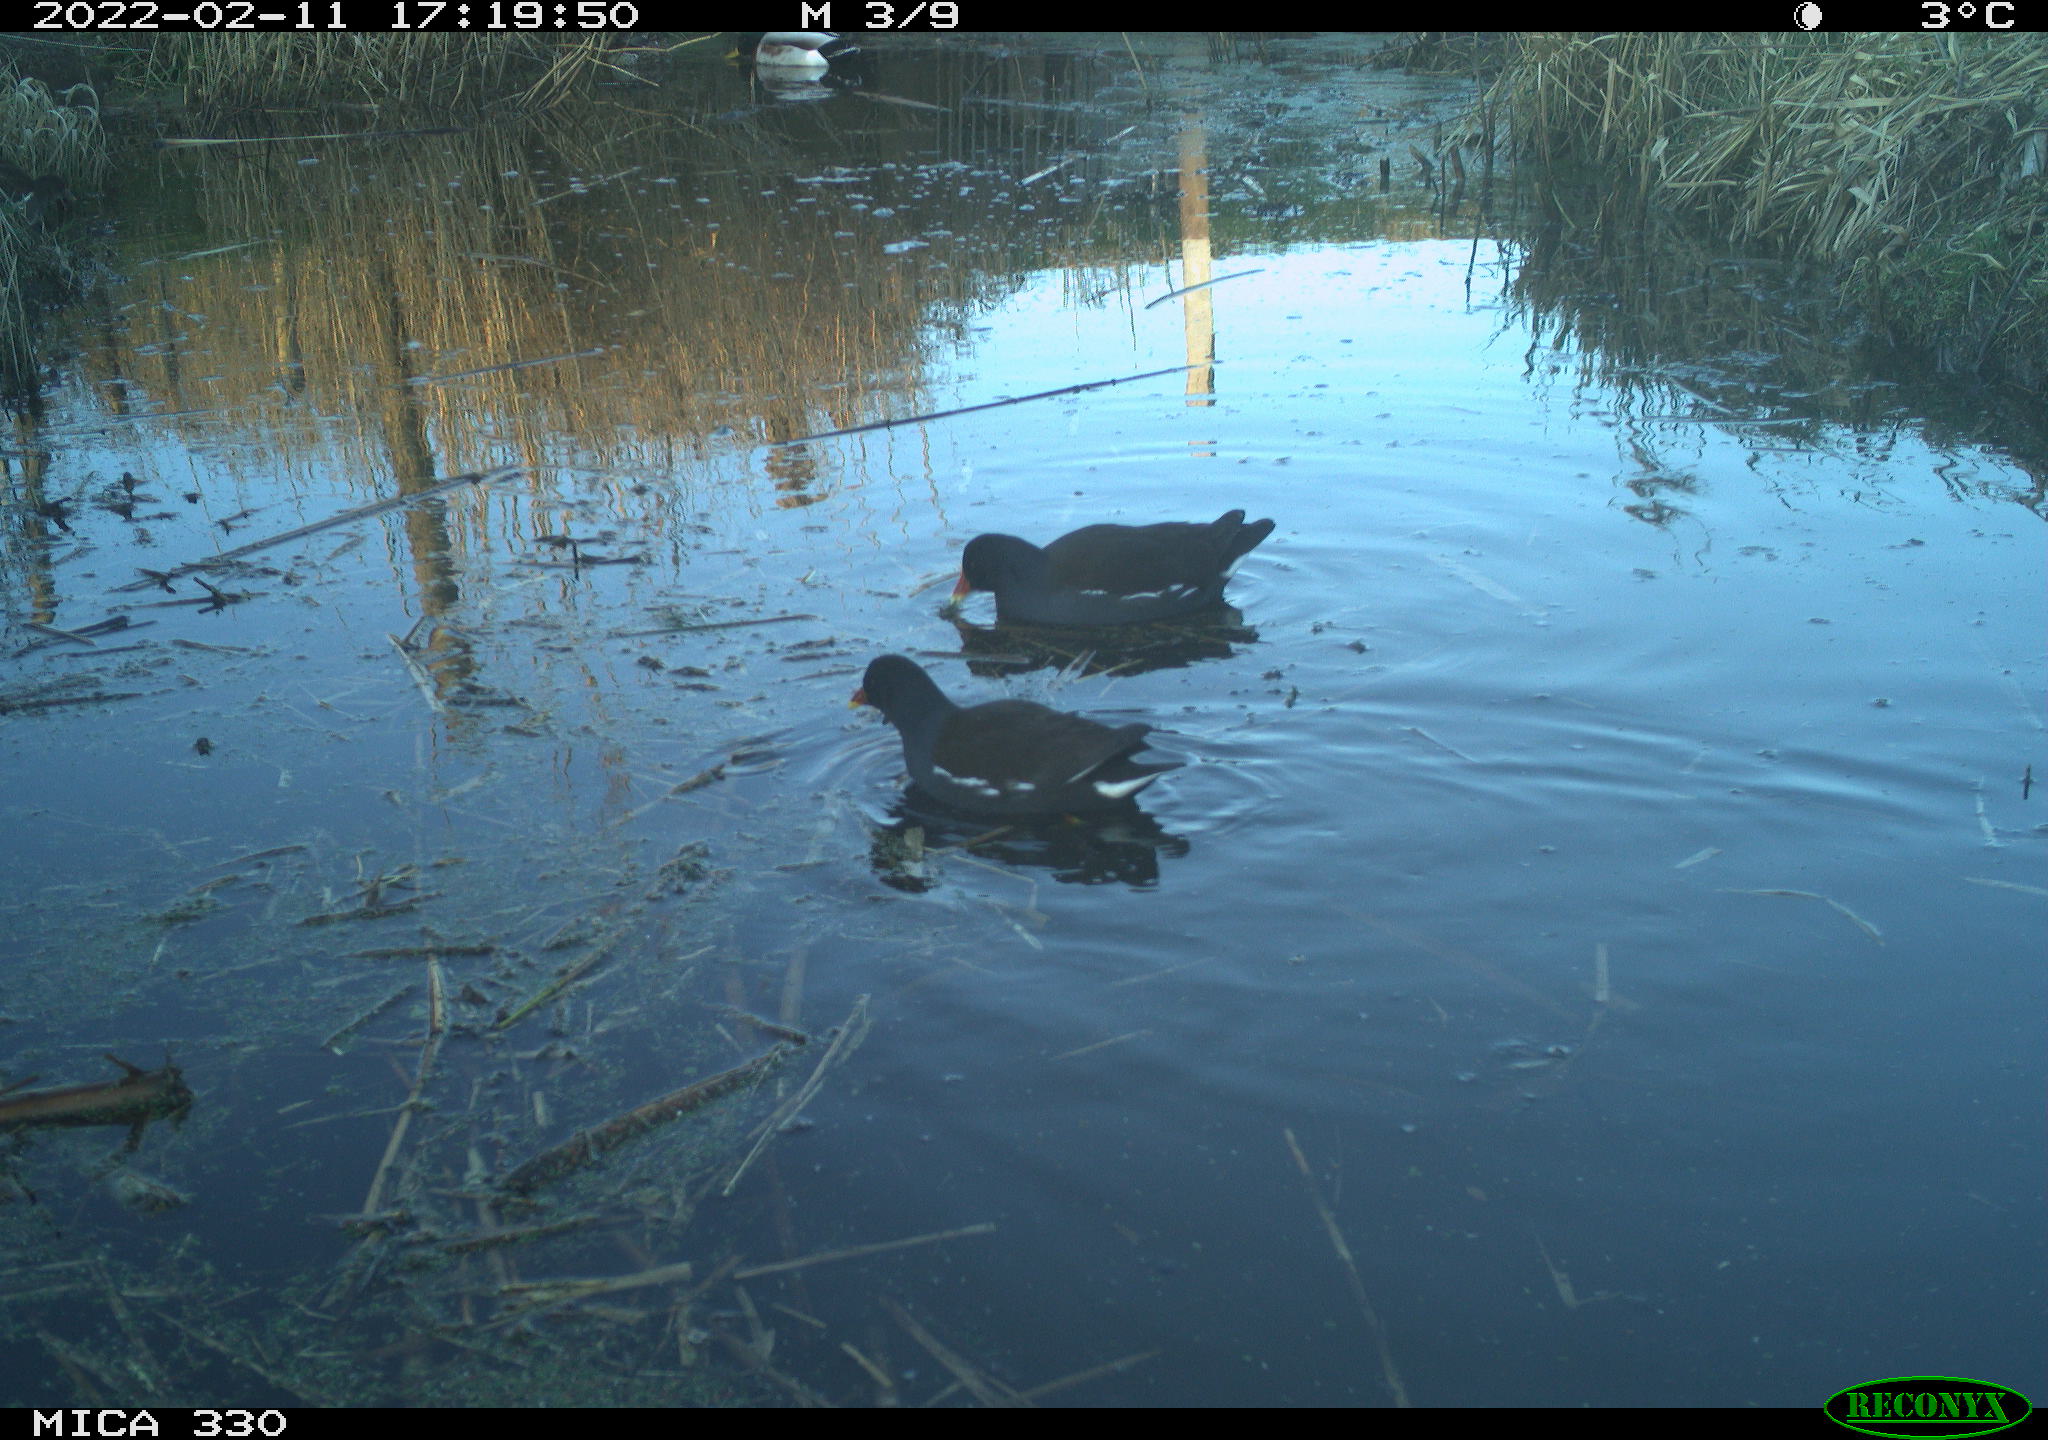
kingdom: Animalia
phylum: Chordata
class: Aves
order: Gruiformes
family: Rallidae
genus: Gallinula
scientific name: Gallinula chloropus
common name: Common moorhen
